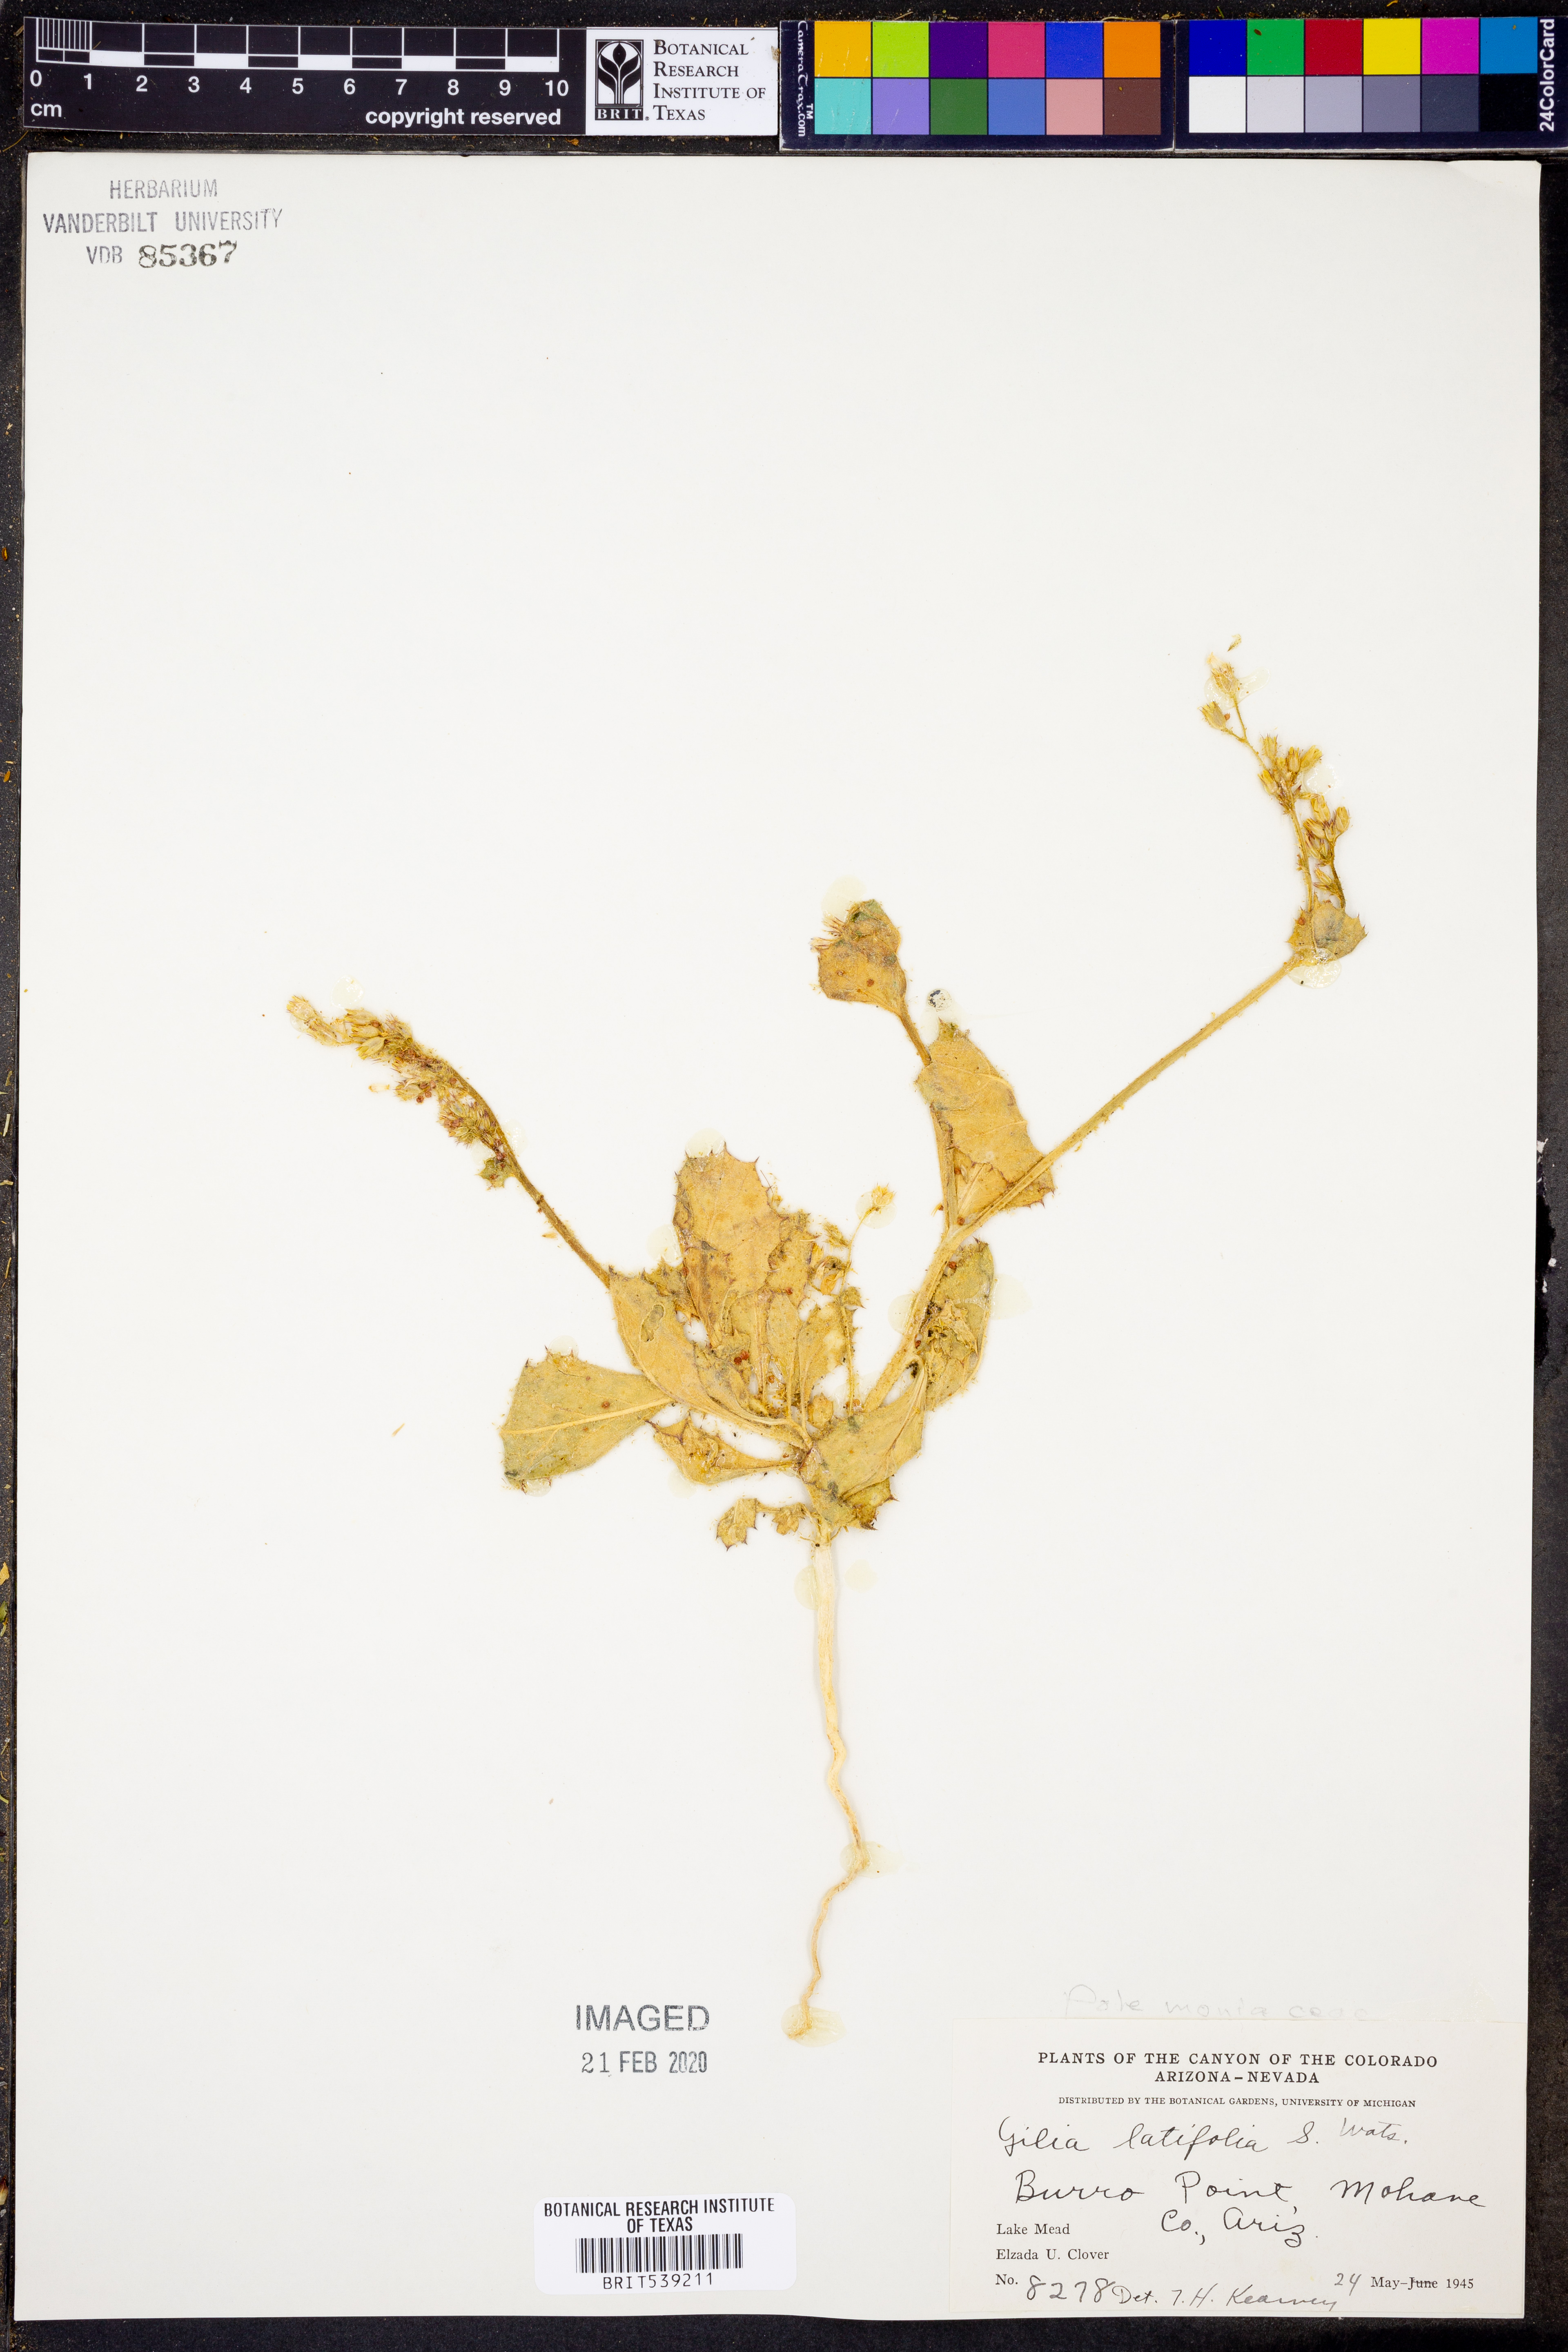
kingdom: Plantae
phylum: Tracheophyta
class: Magnoliopsida
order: Ericales
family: Polemoniaceae
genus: Aliciella
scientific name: Aliciella latifolia
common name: Broad-leaf gilia
